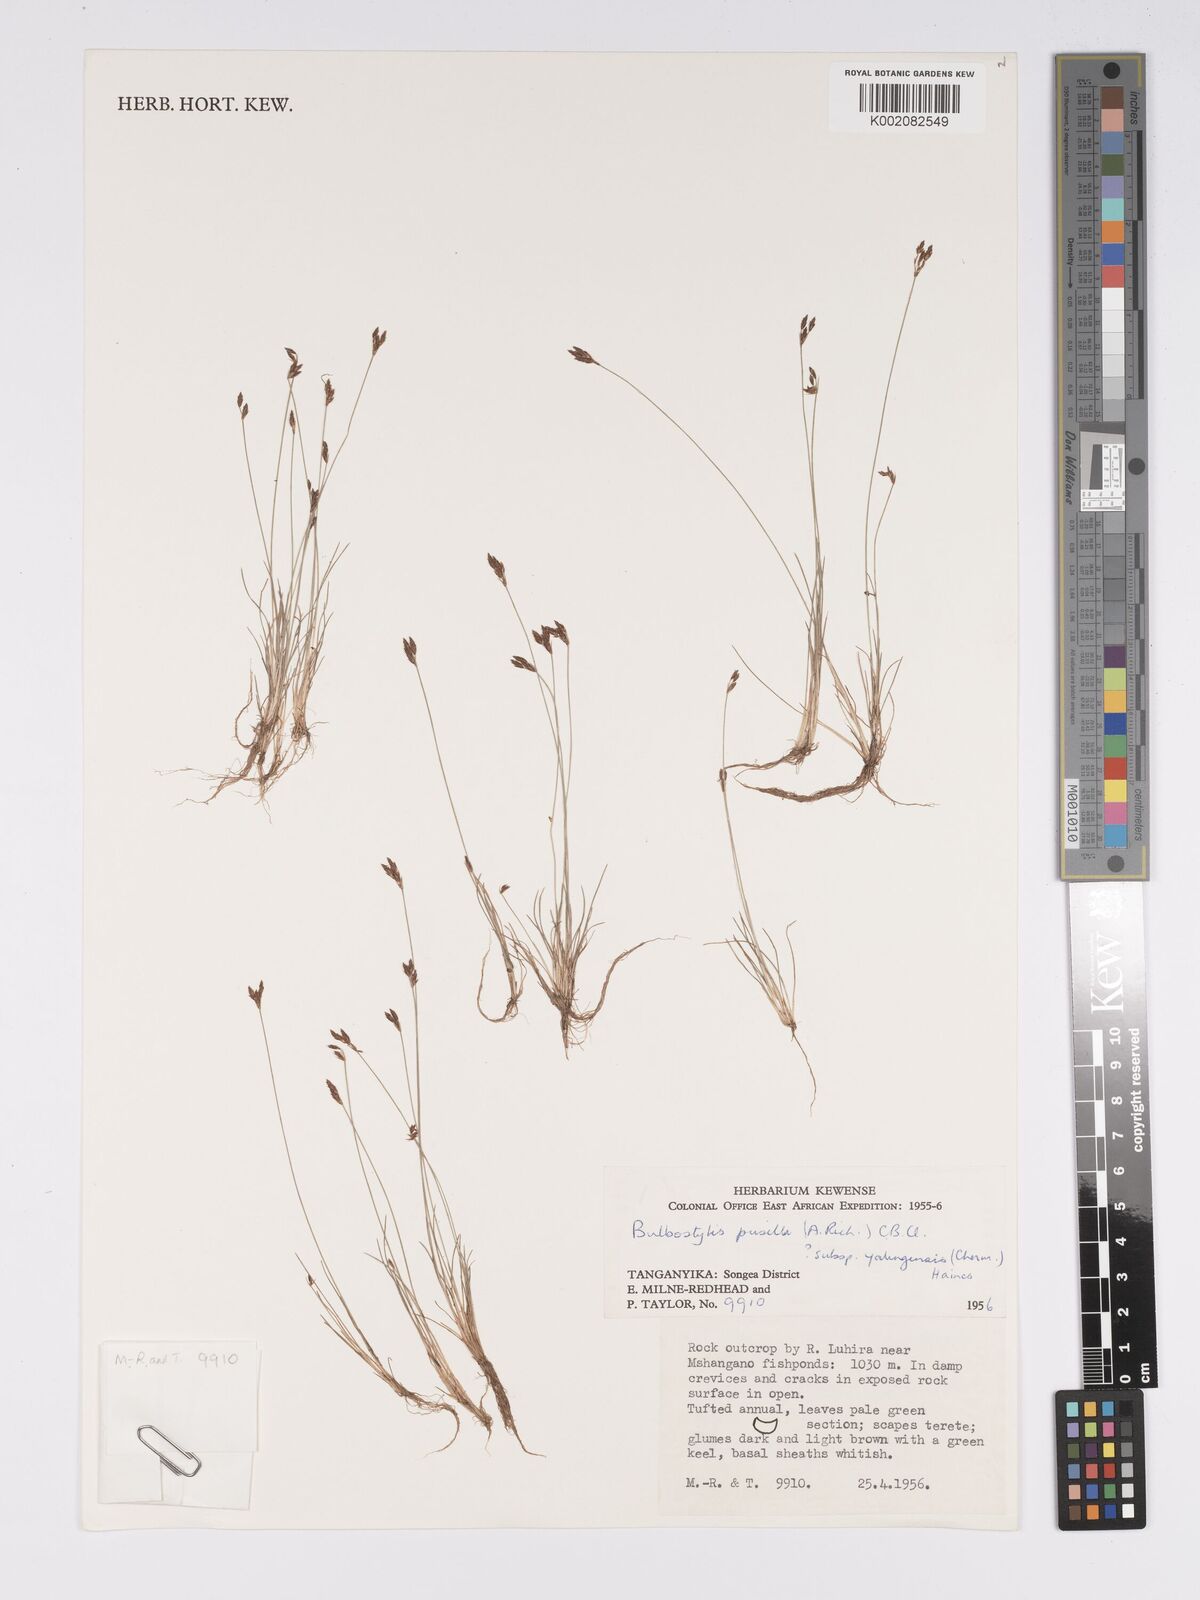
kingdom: Plantae
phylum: Tracheophyta
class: Liliopsida
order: Poales
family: Cyperaceae
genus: Bulbostylis
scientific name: Bulbostylis pusilla
